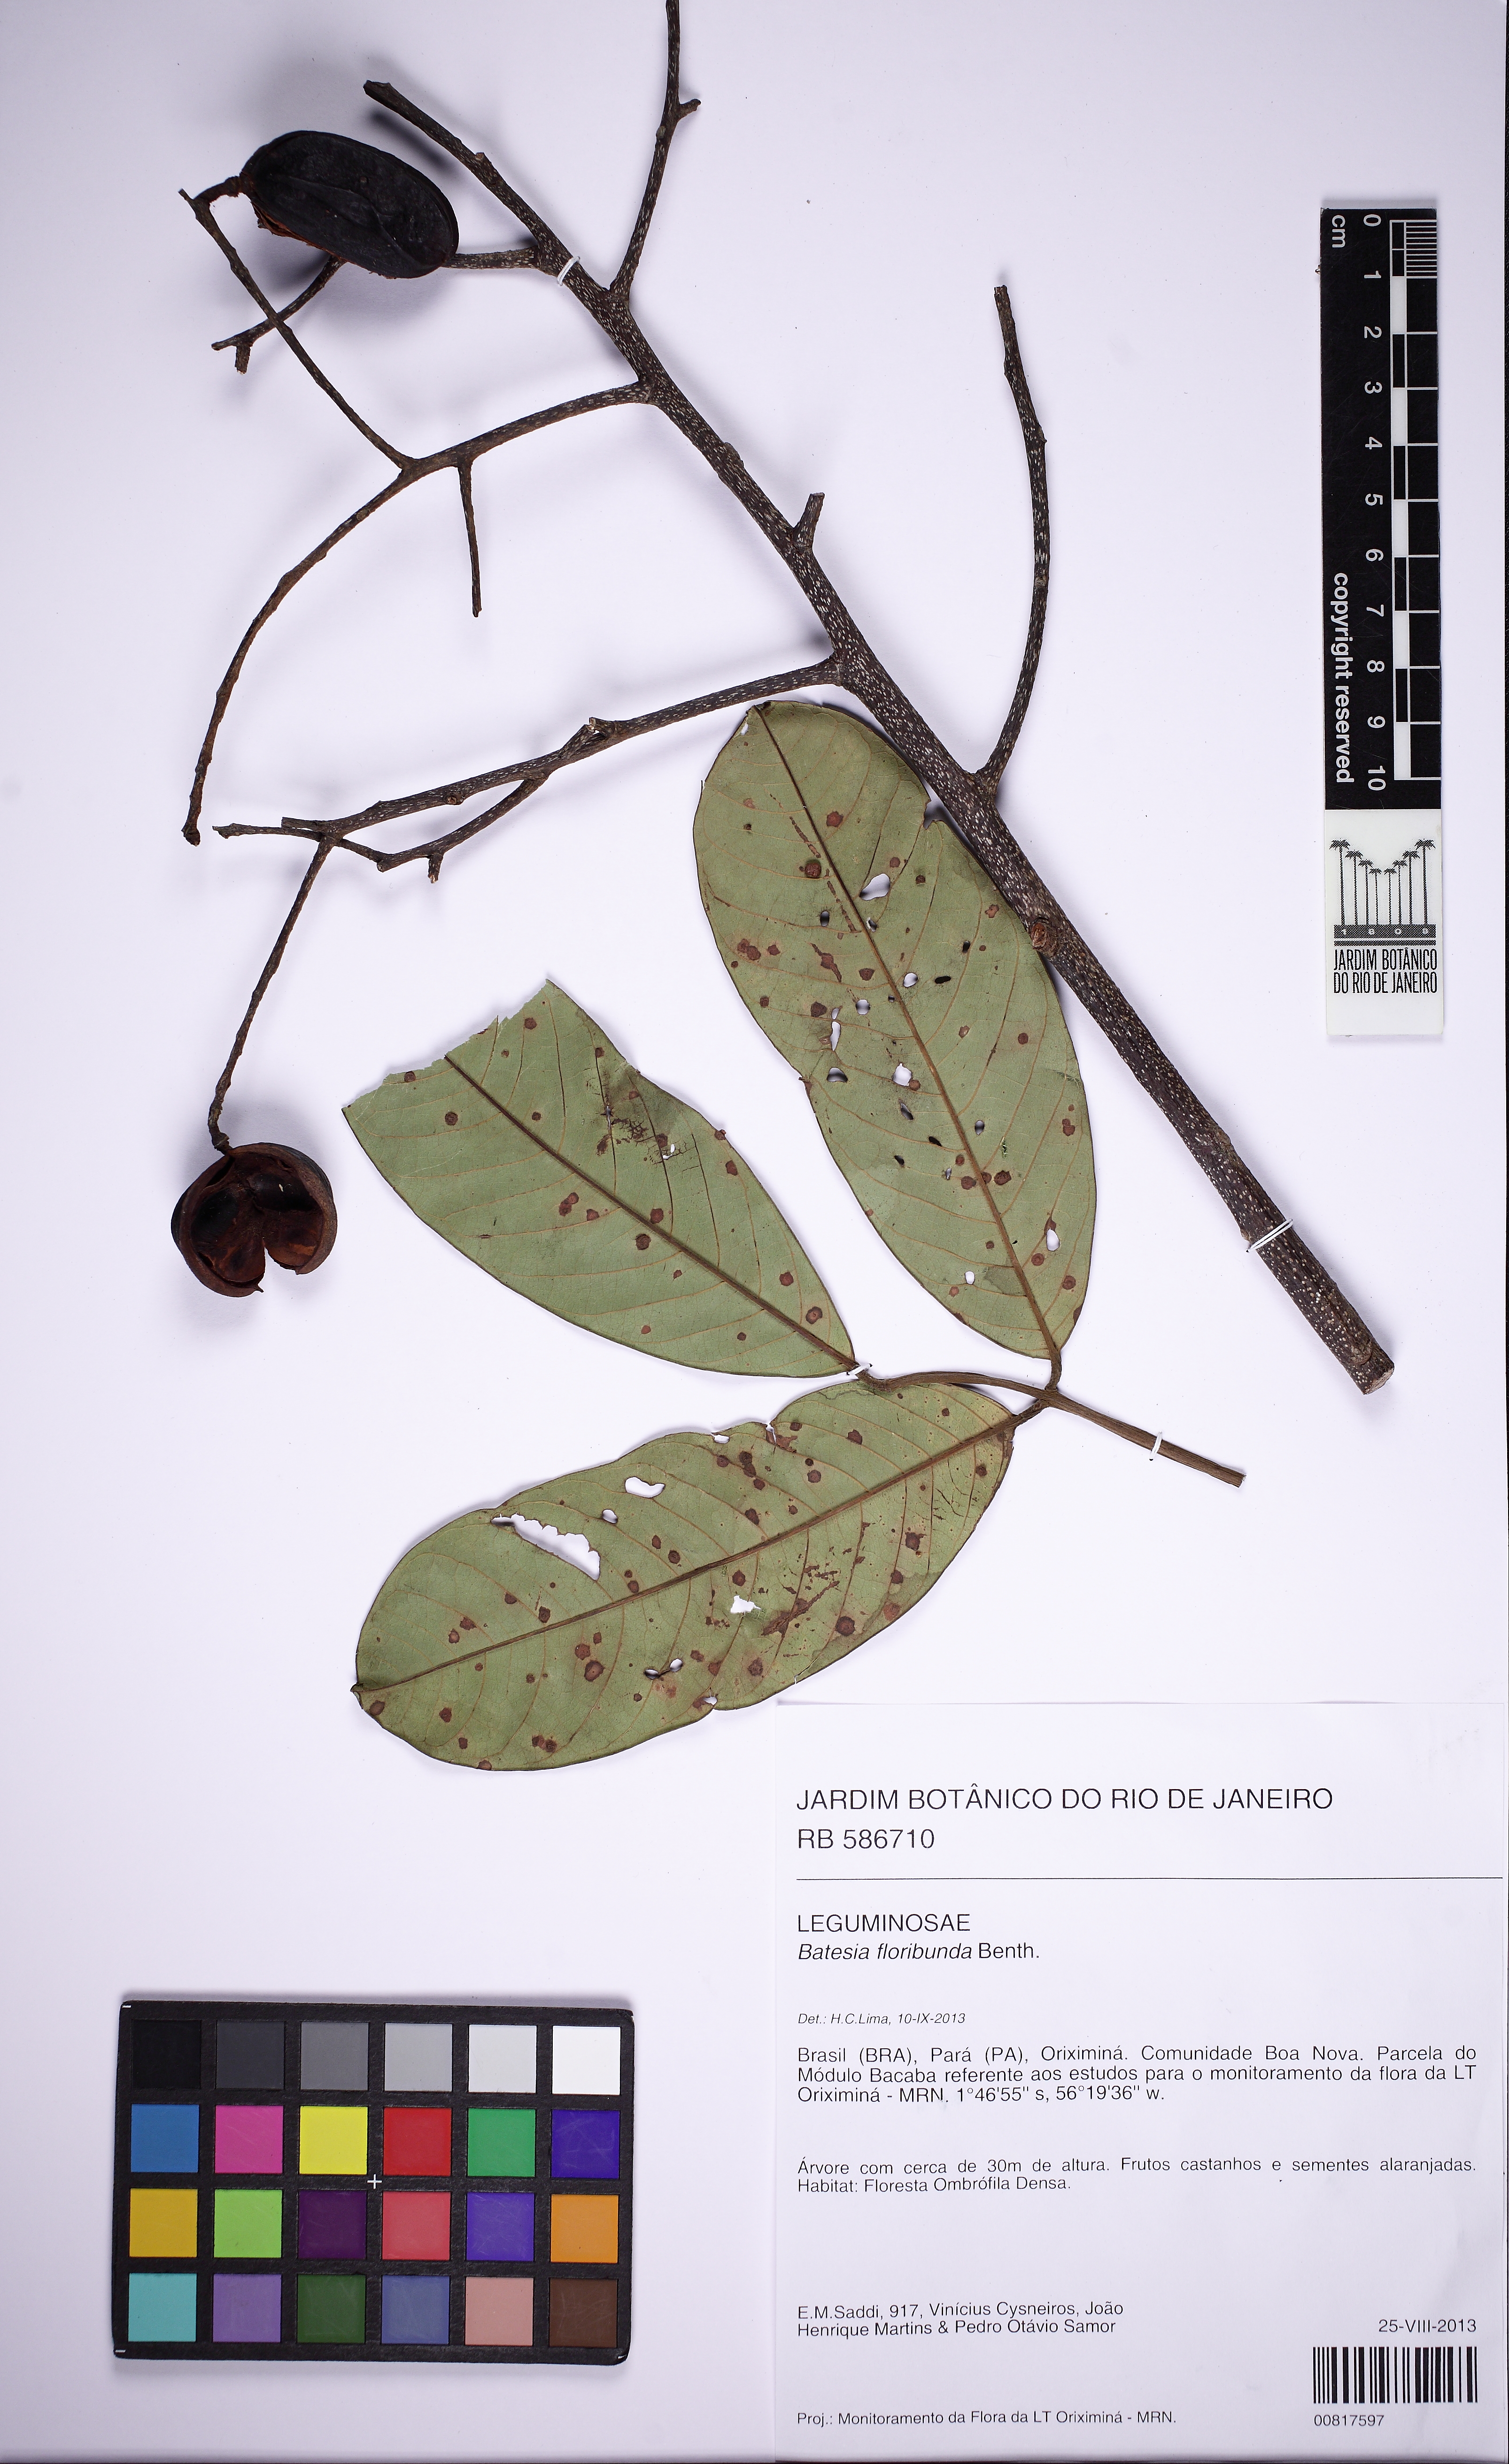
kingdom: Plantae
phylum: Tracheophyta
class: Magnoliopsida
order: Fabales
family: Fabaceae
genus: Batesia
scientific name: Batesia floribunda
